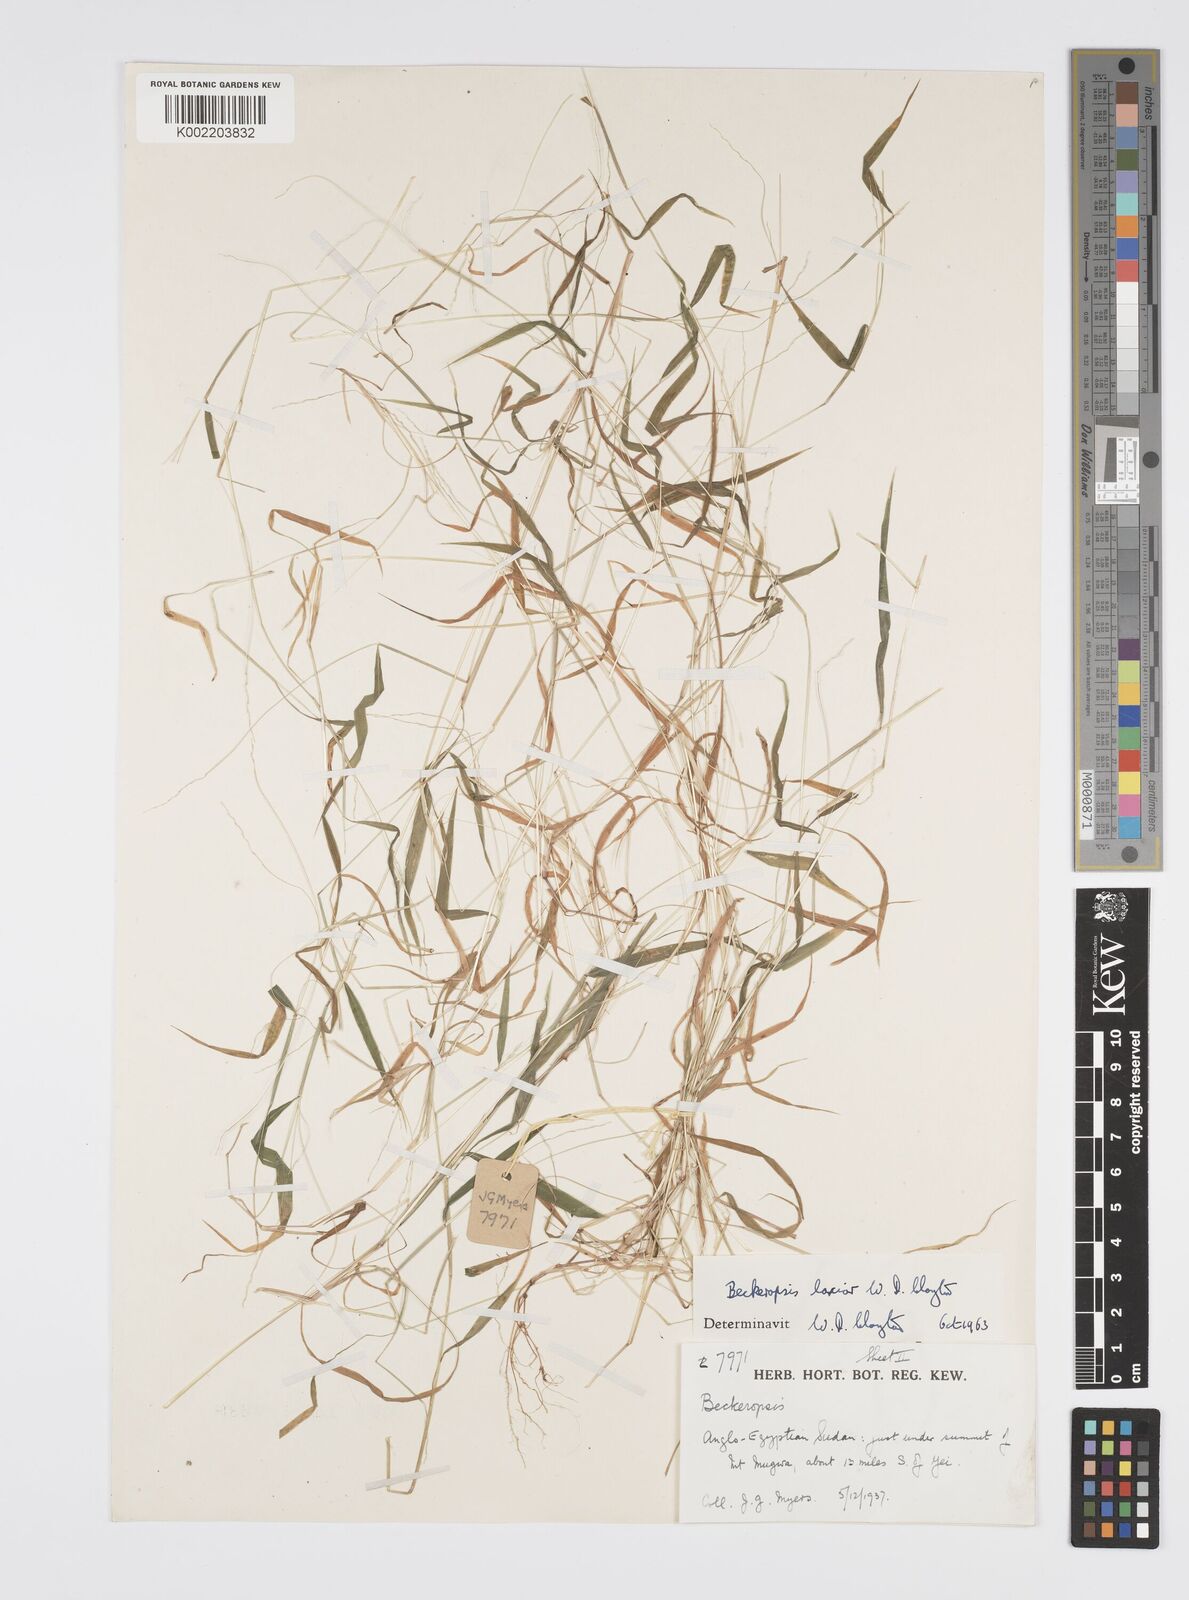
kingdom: Plantae
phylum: Tracheophyta
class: Liliopsida
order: Poales
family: Poaceae
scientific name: Poaceae
